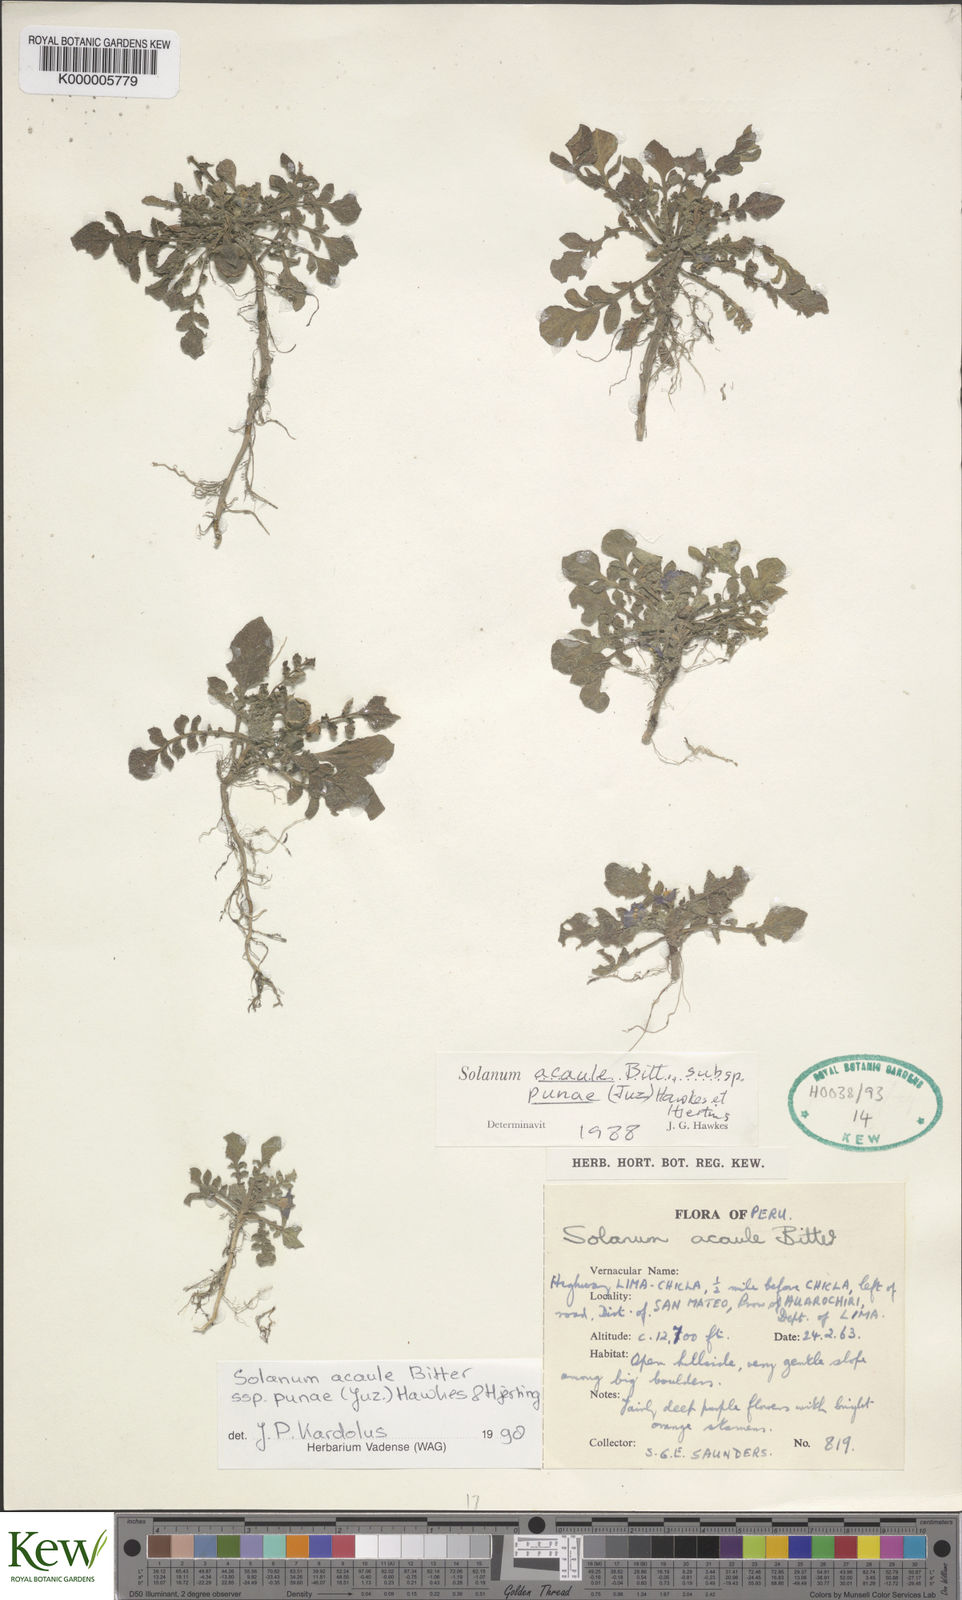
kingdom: Plantae
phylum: Tracheophyta
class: Magnoliopsida
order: Solanales
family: Solanaceae
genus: Solanum
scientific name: Solanum acaule
